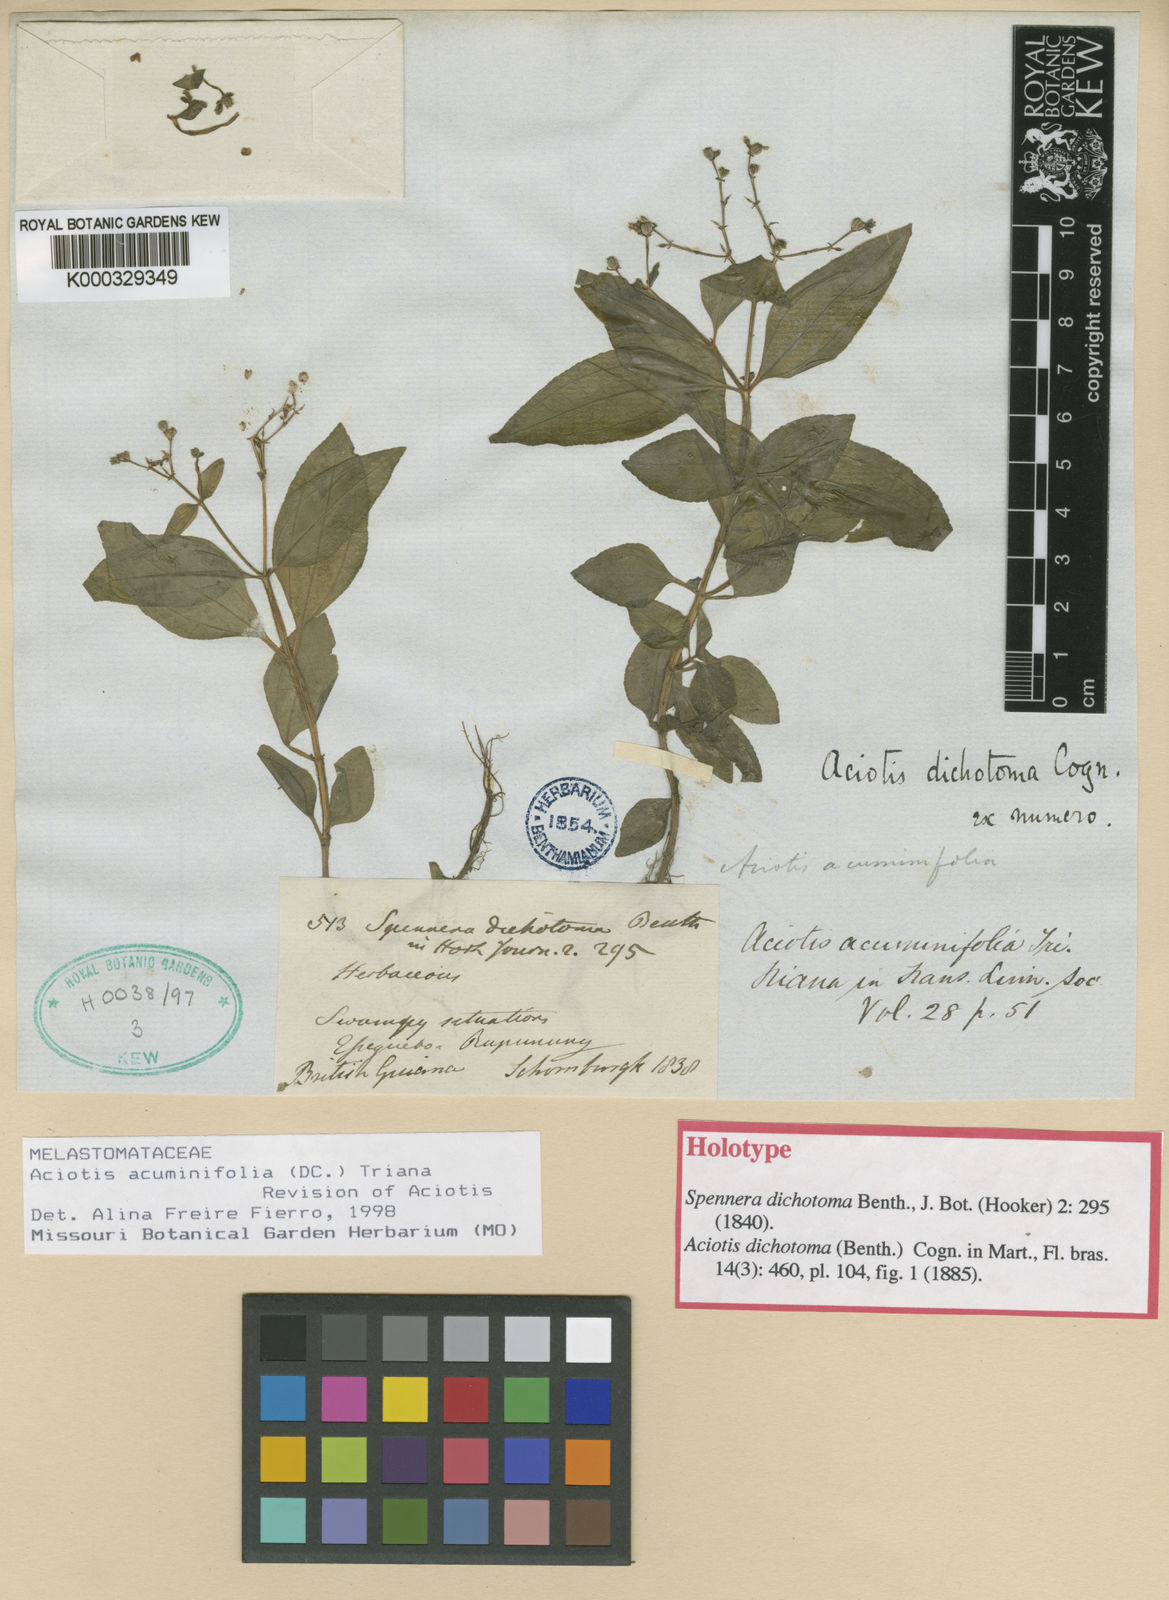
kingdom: Plantae
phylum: Tracheophyta
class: Magnoliopsida
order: Myrtales
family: Melastomataceae
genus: Aciotis
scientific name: Aciotis acuminifolia
